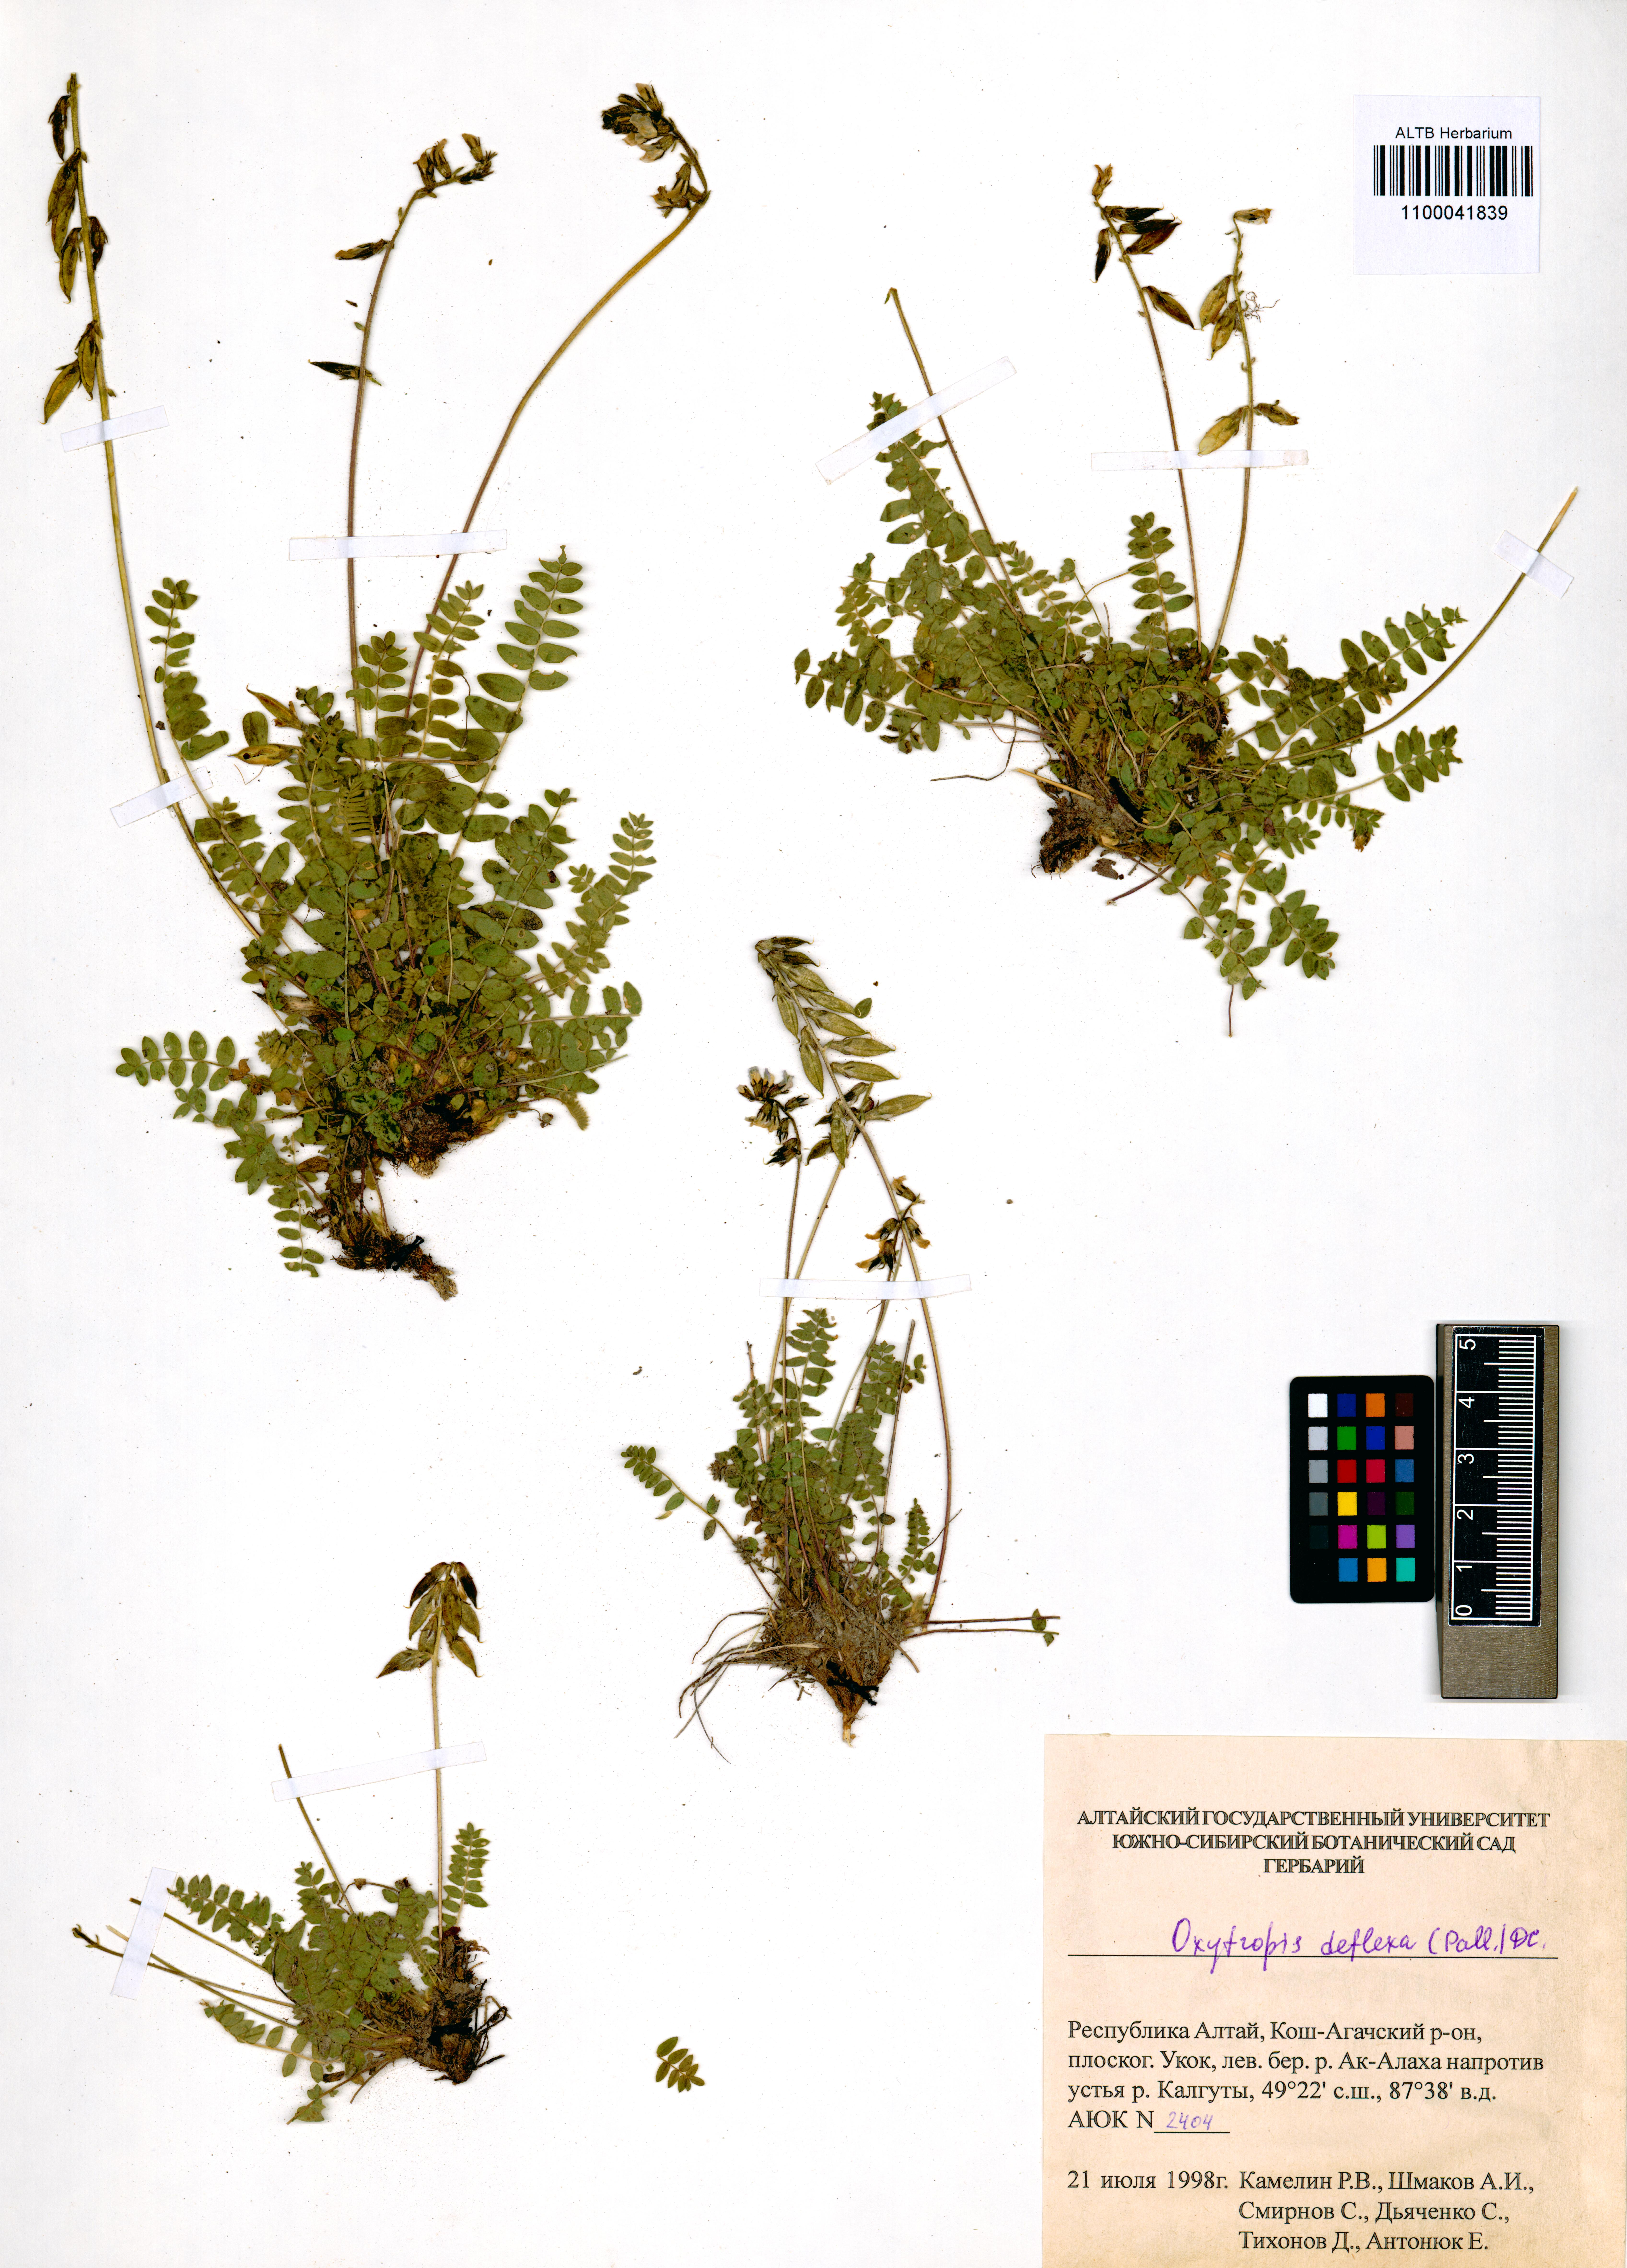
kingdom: Plantae
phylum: Tracheophyta
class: Magnoliopsida
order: Fabales
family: Fabaceae
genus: Oxytropis
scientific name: Oxytropis deflexa
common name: Stemmed oxytrope
